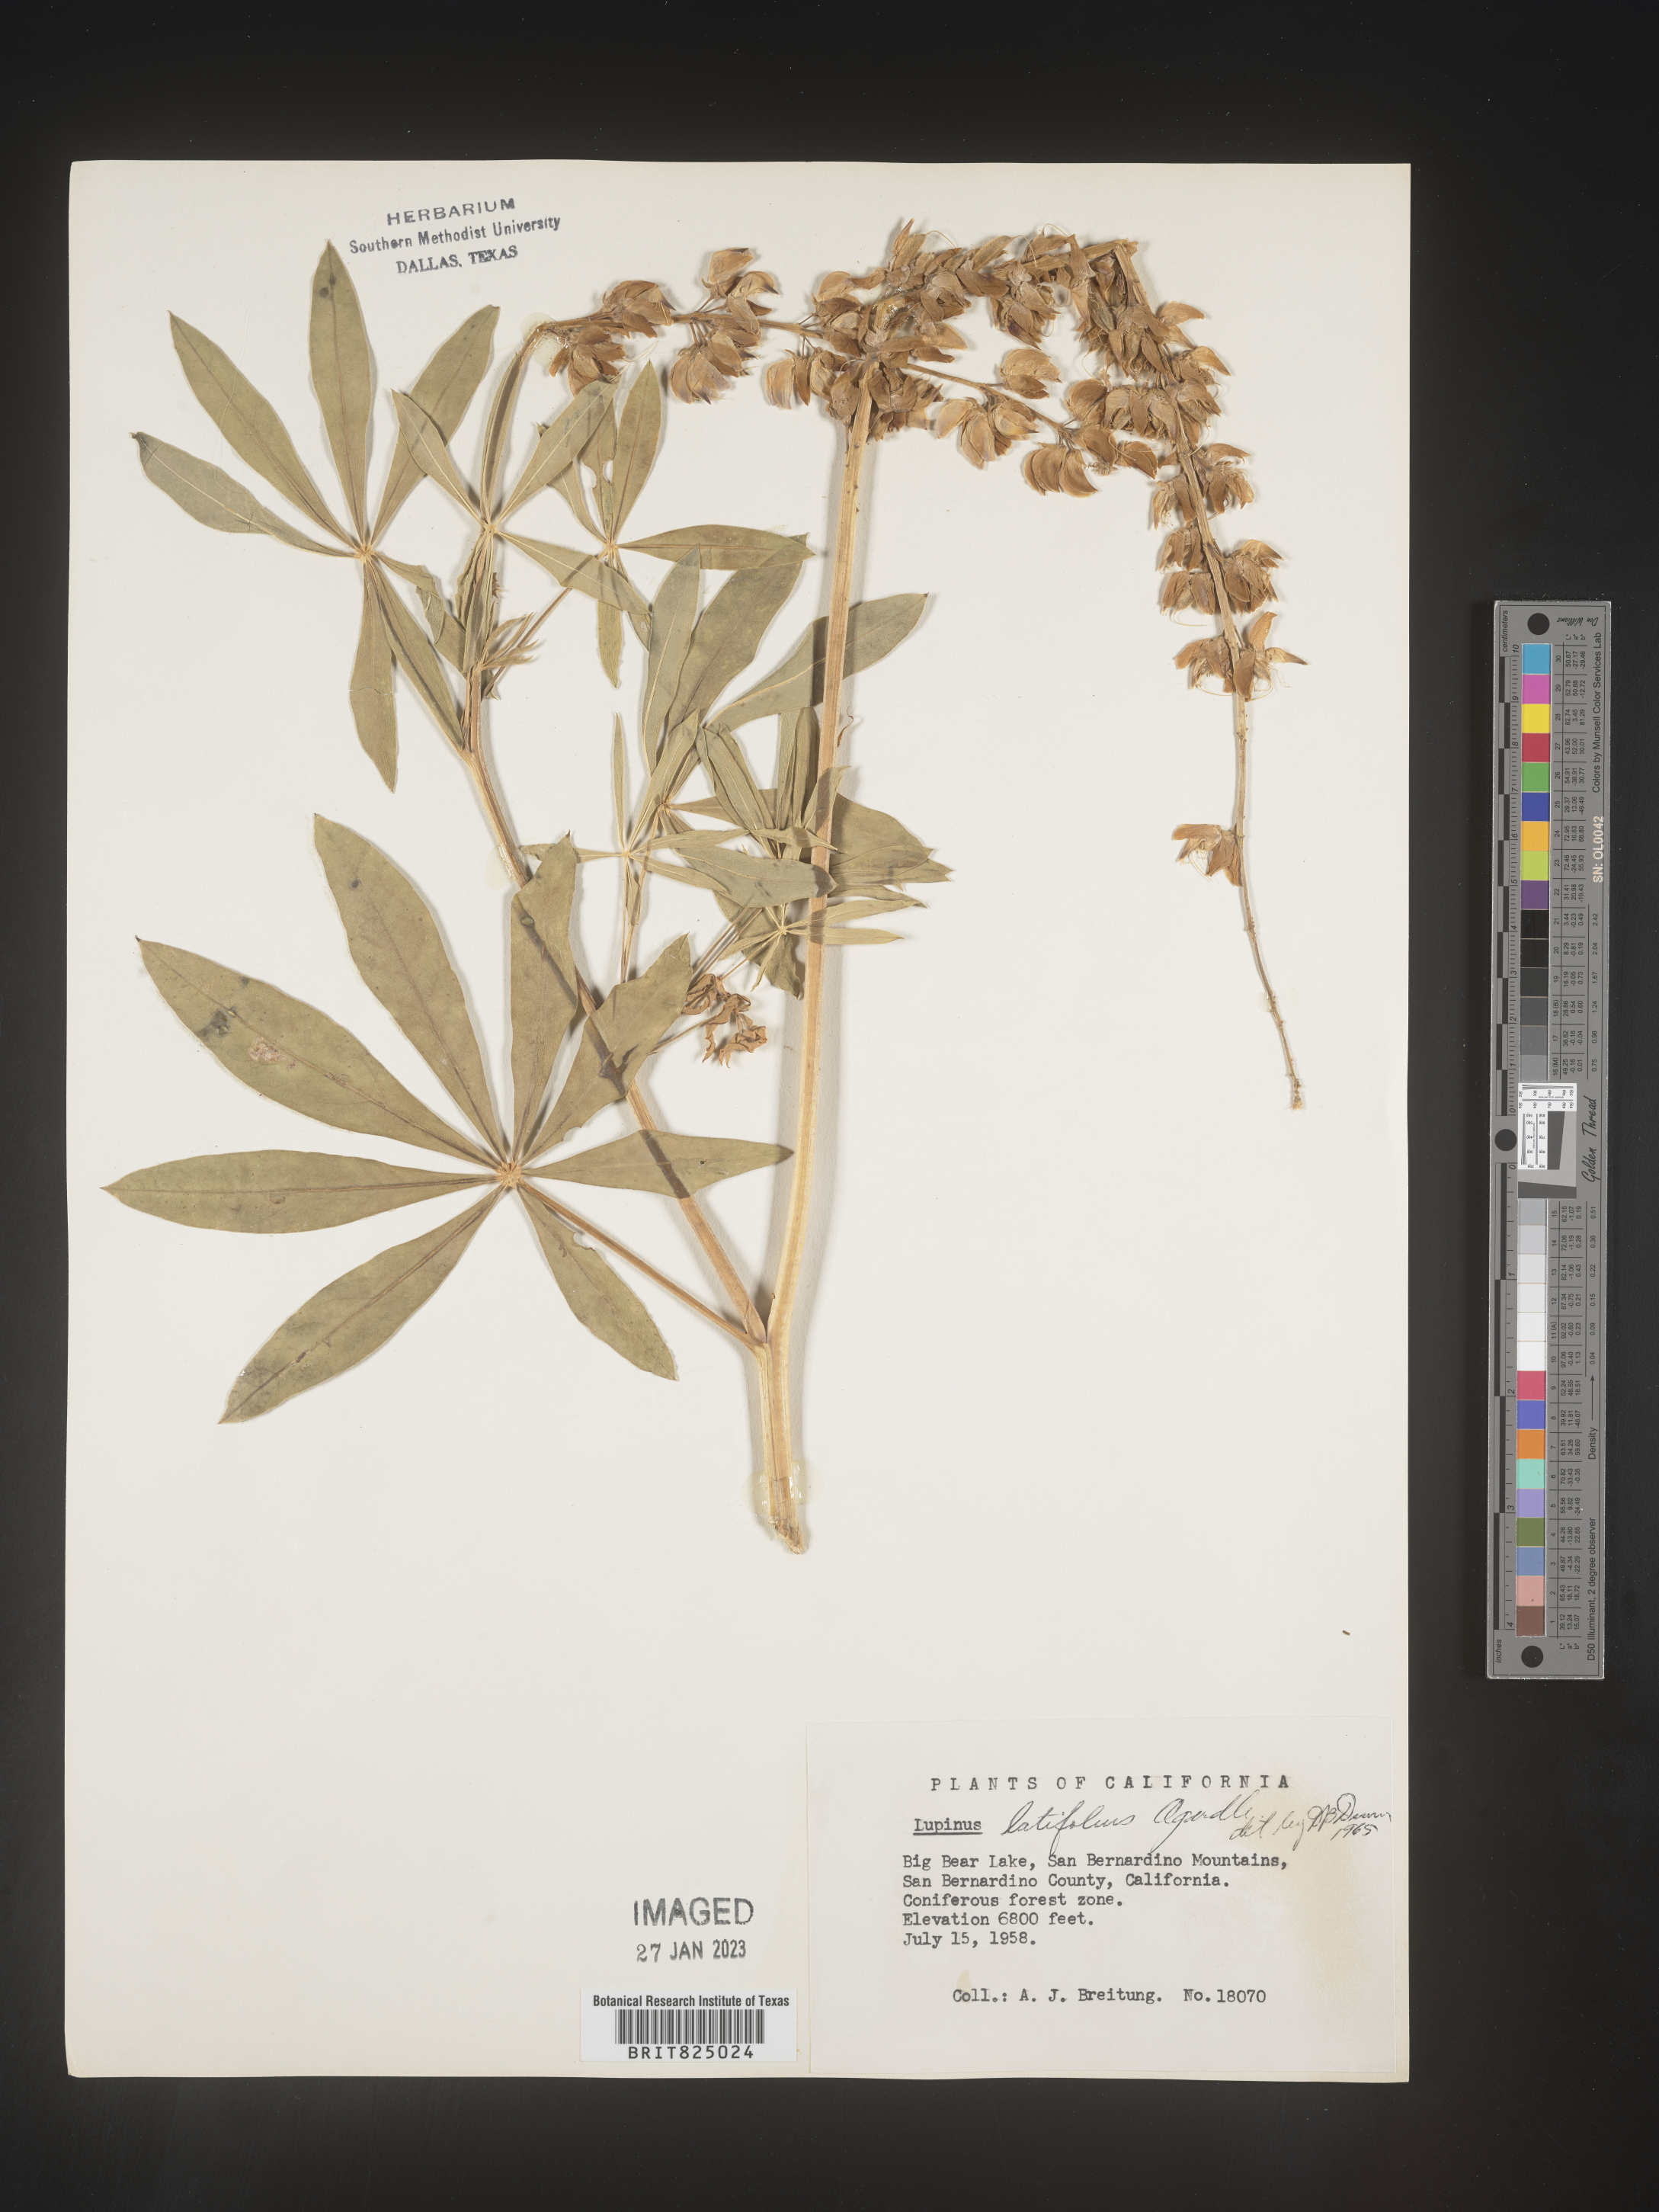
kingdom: Plantae
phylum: Tracheophyta
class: Magnoliopsida
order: Fabales
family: Fabaceae
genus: Lupinus
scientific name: Lupinus
